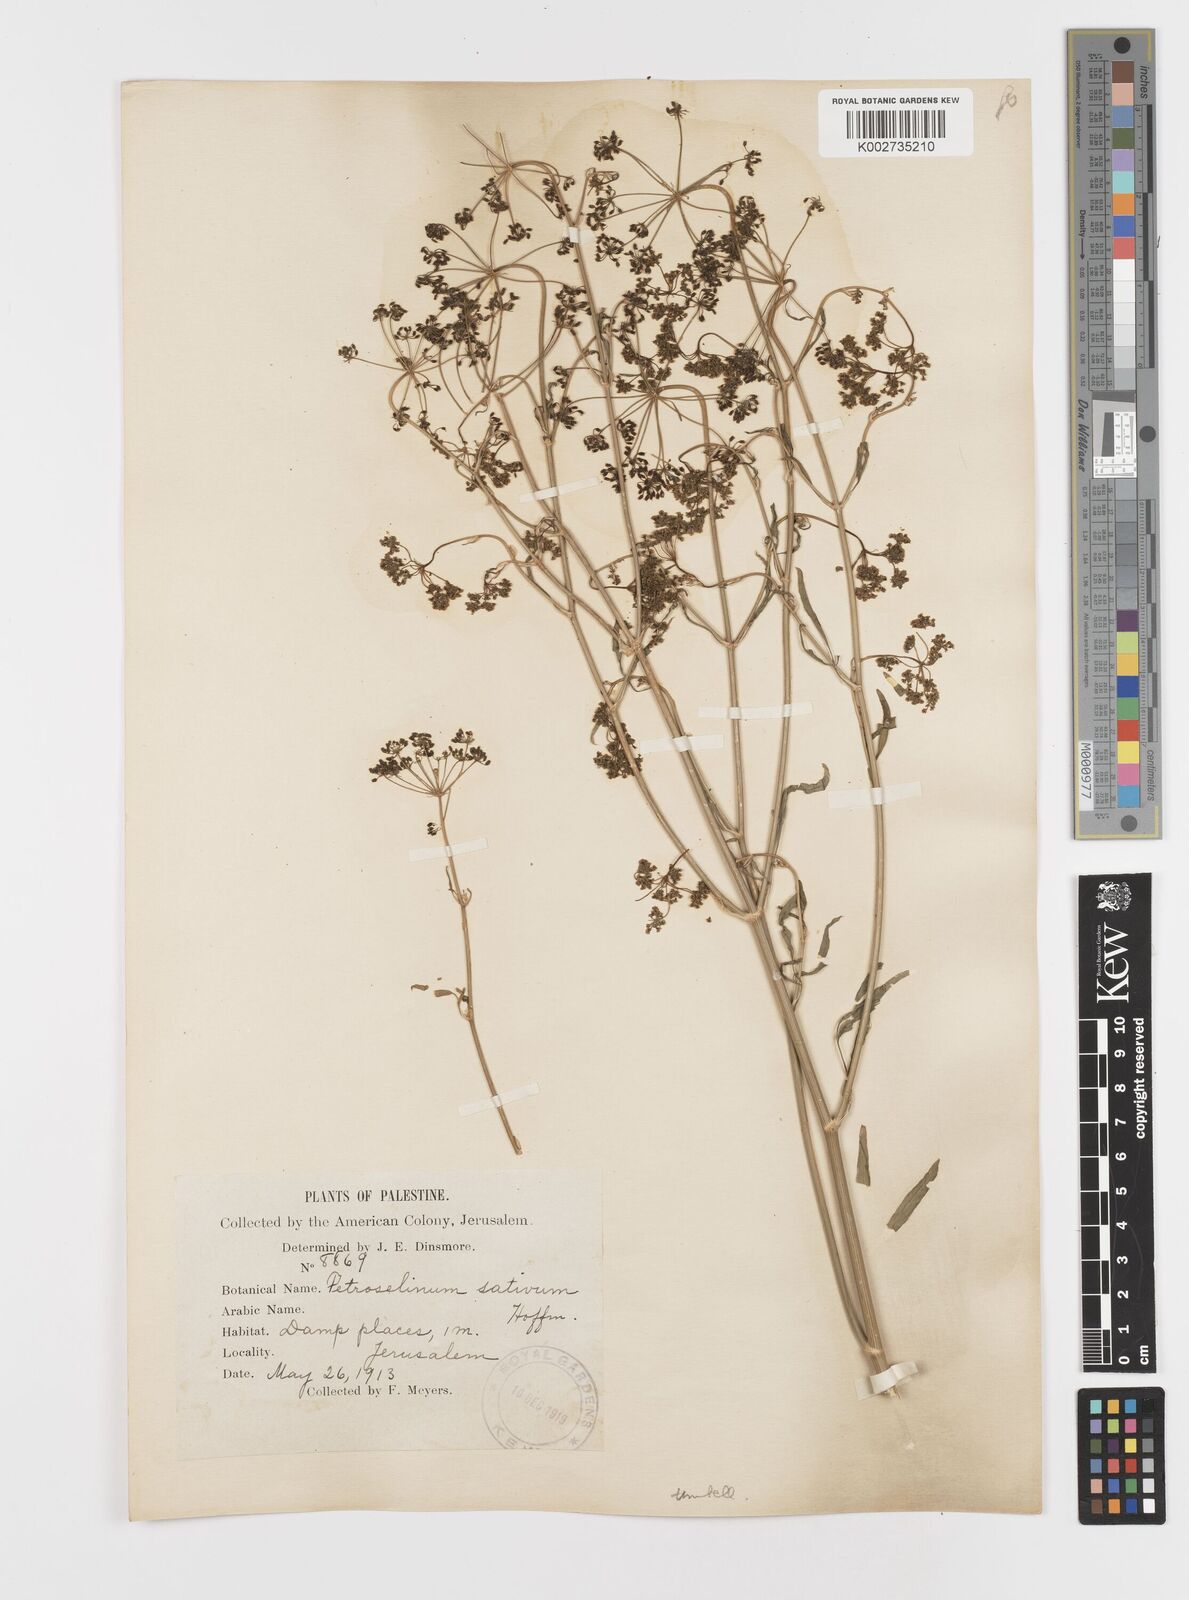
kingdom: Plantae
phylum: Tracheophyta
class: Magnoliopsida
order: Apiales
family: Apiaceae
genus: Petroselinum
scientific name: Petroselinum crispum
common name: Parsley
